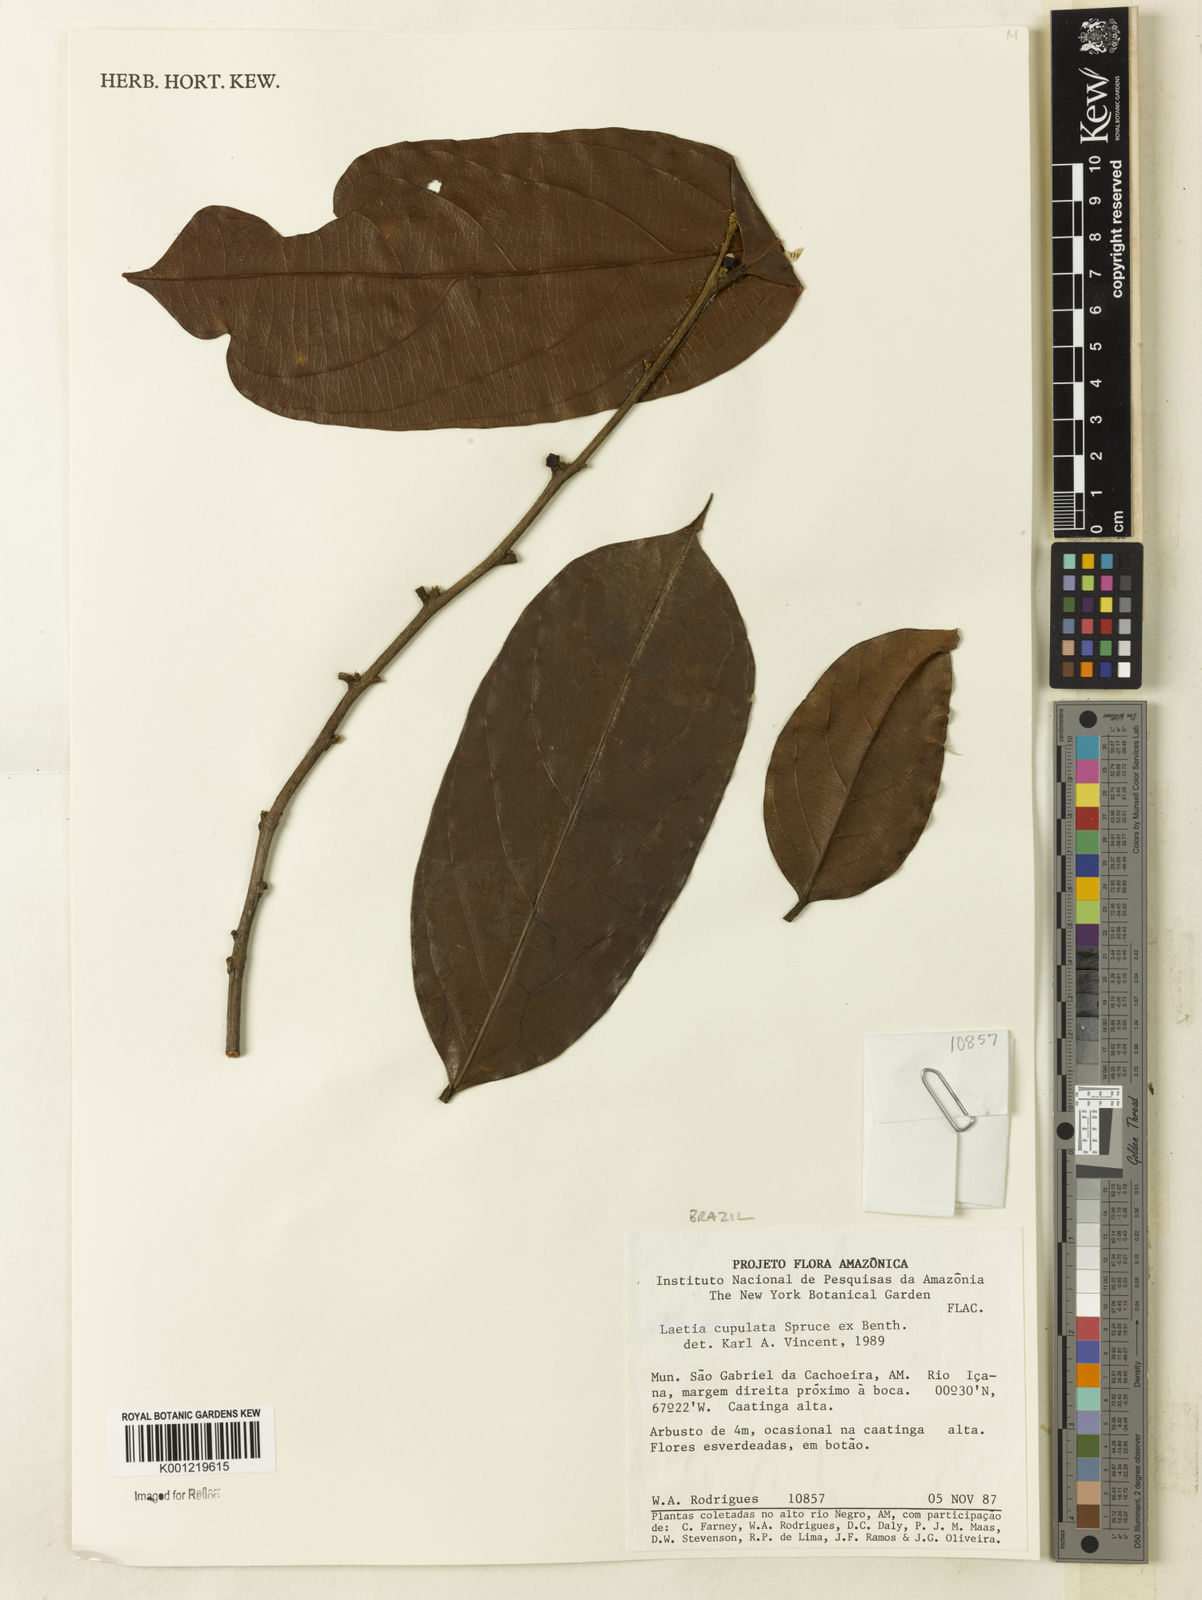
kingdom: Plantae
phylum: Tracheophyta
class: Magnoliopsida
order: Malpighiales
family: Salicaceae
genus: Irenodendron
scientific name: Irenodendron cupulatum
